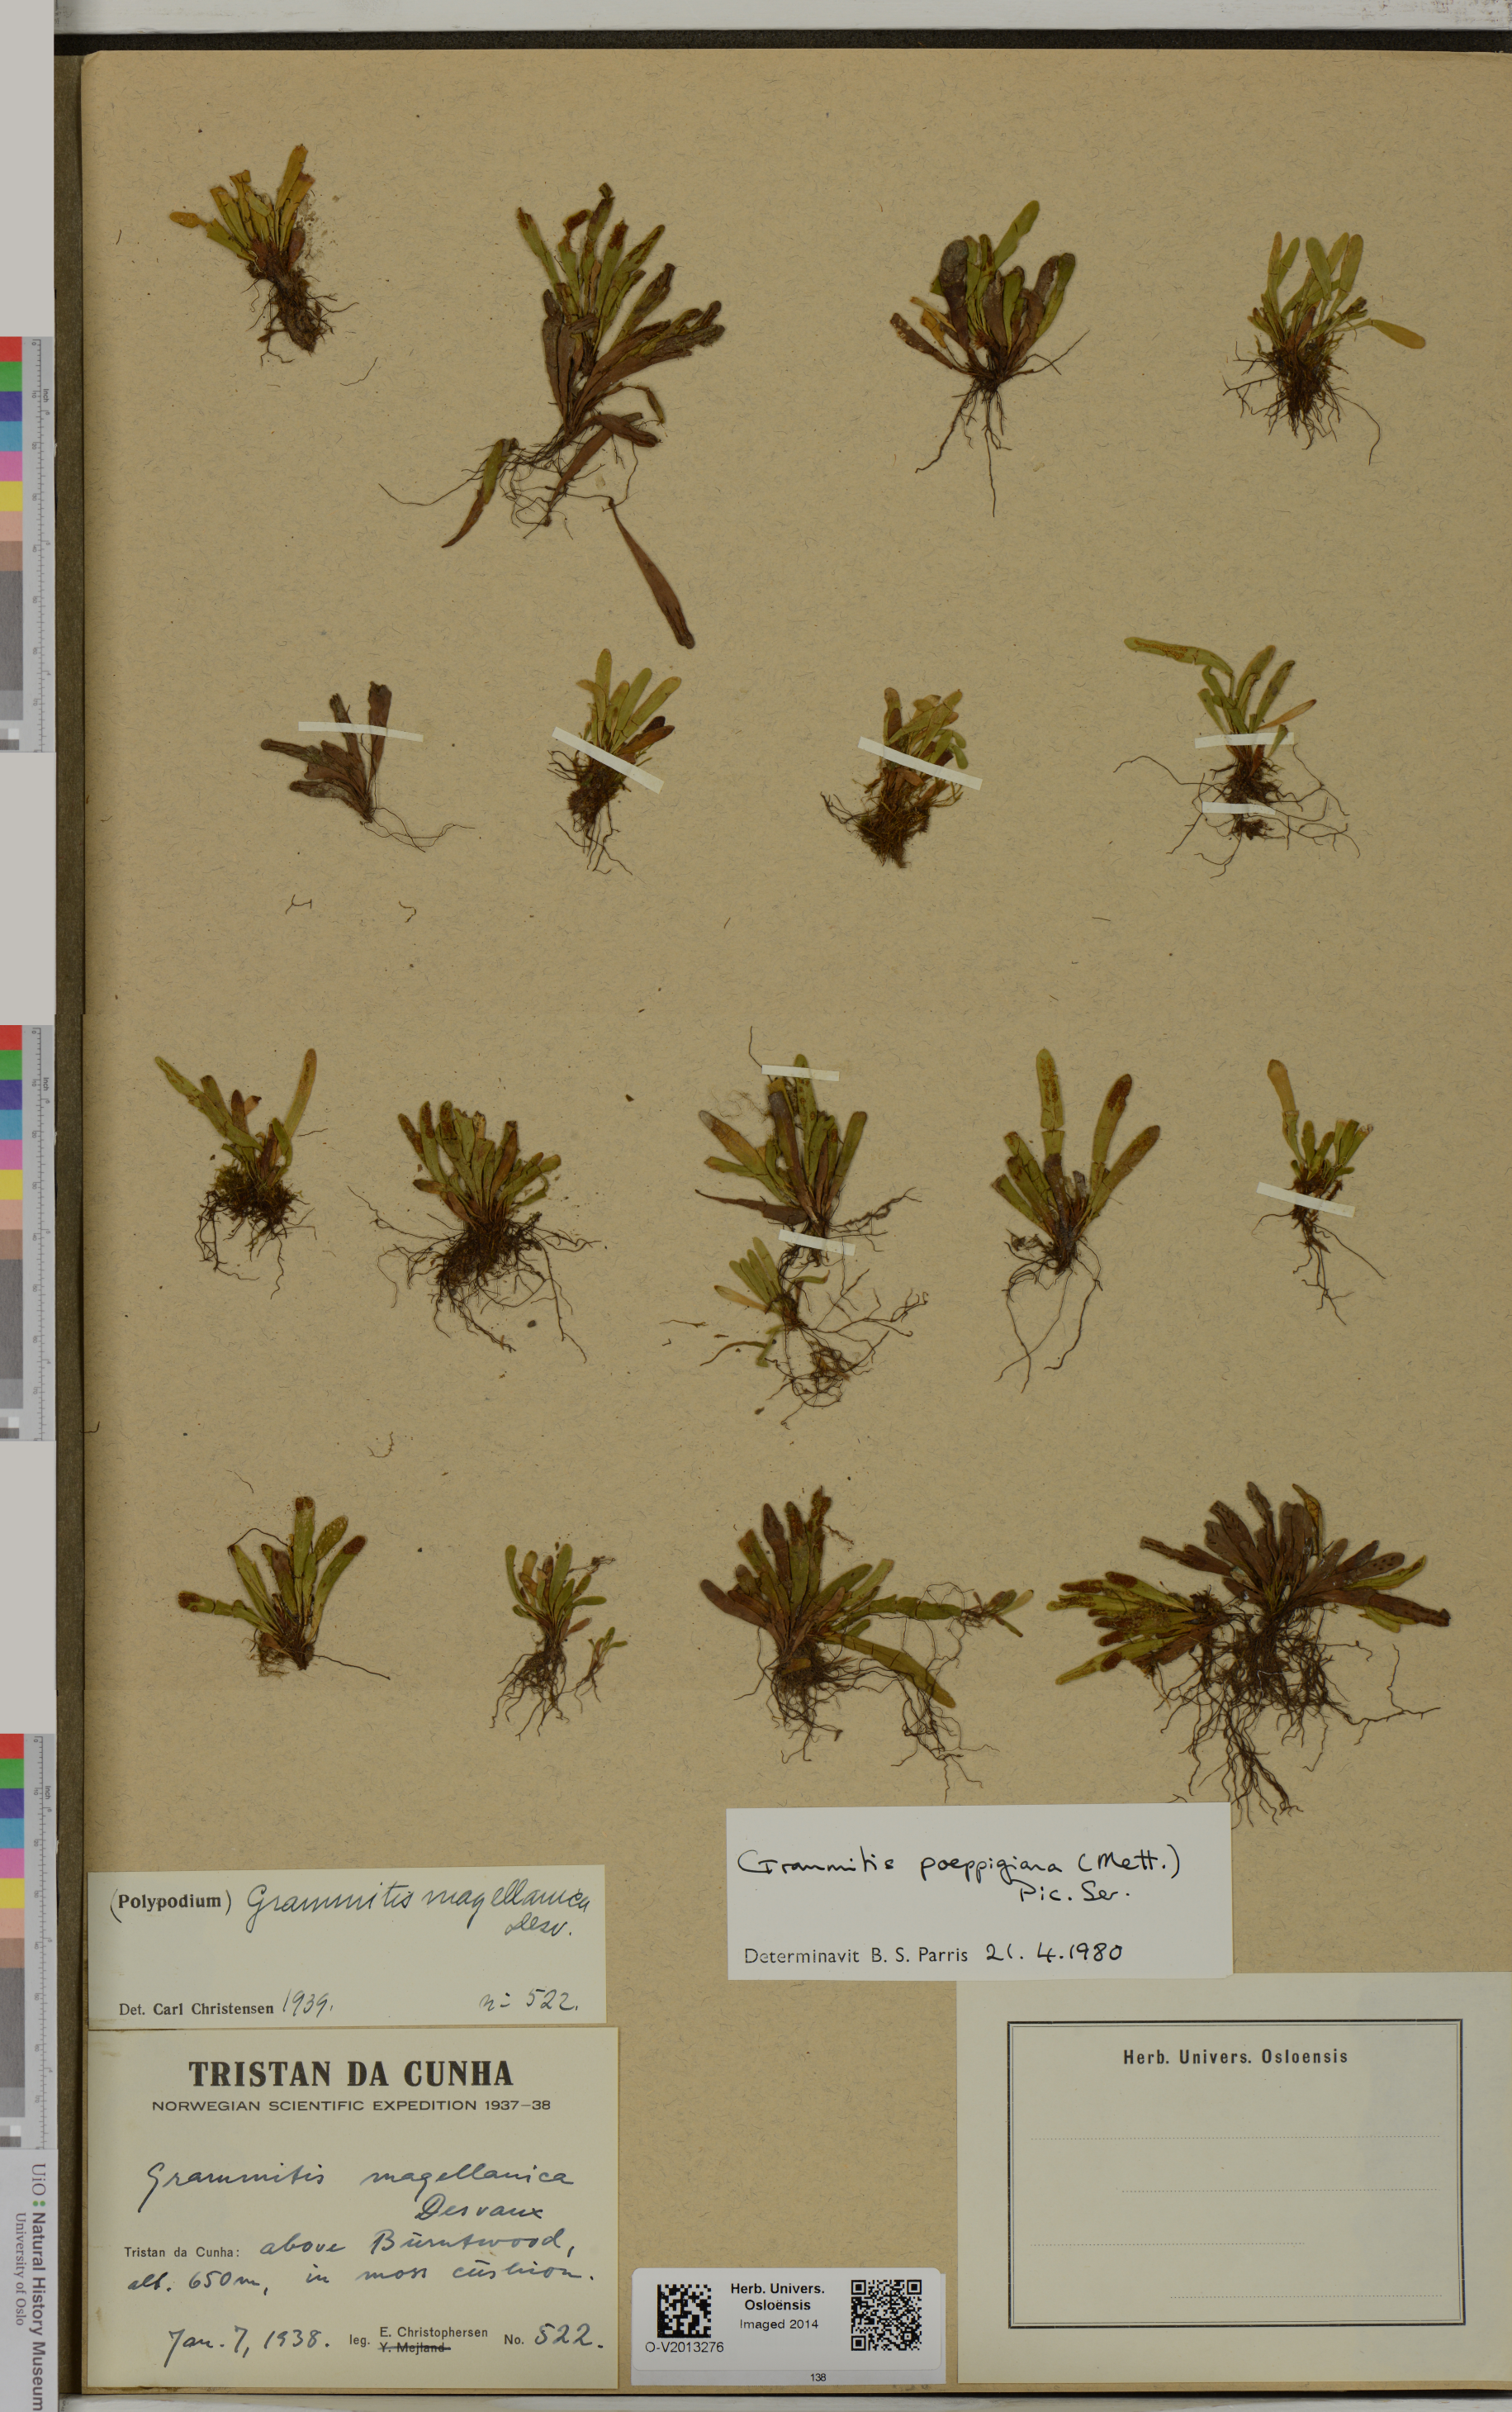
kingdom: Plantae
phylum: Tracheophyta
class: Polypodiopsida
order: Polypodiales
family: Polypodiaceae
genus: Notogrammitis
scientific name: Notogrammitis
